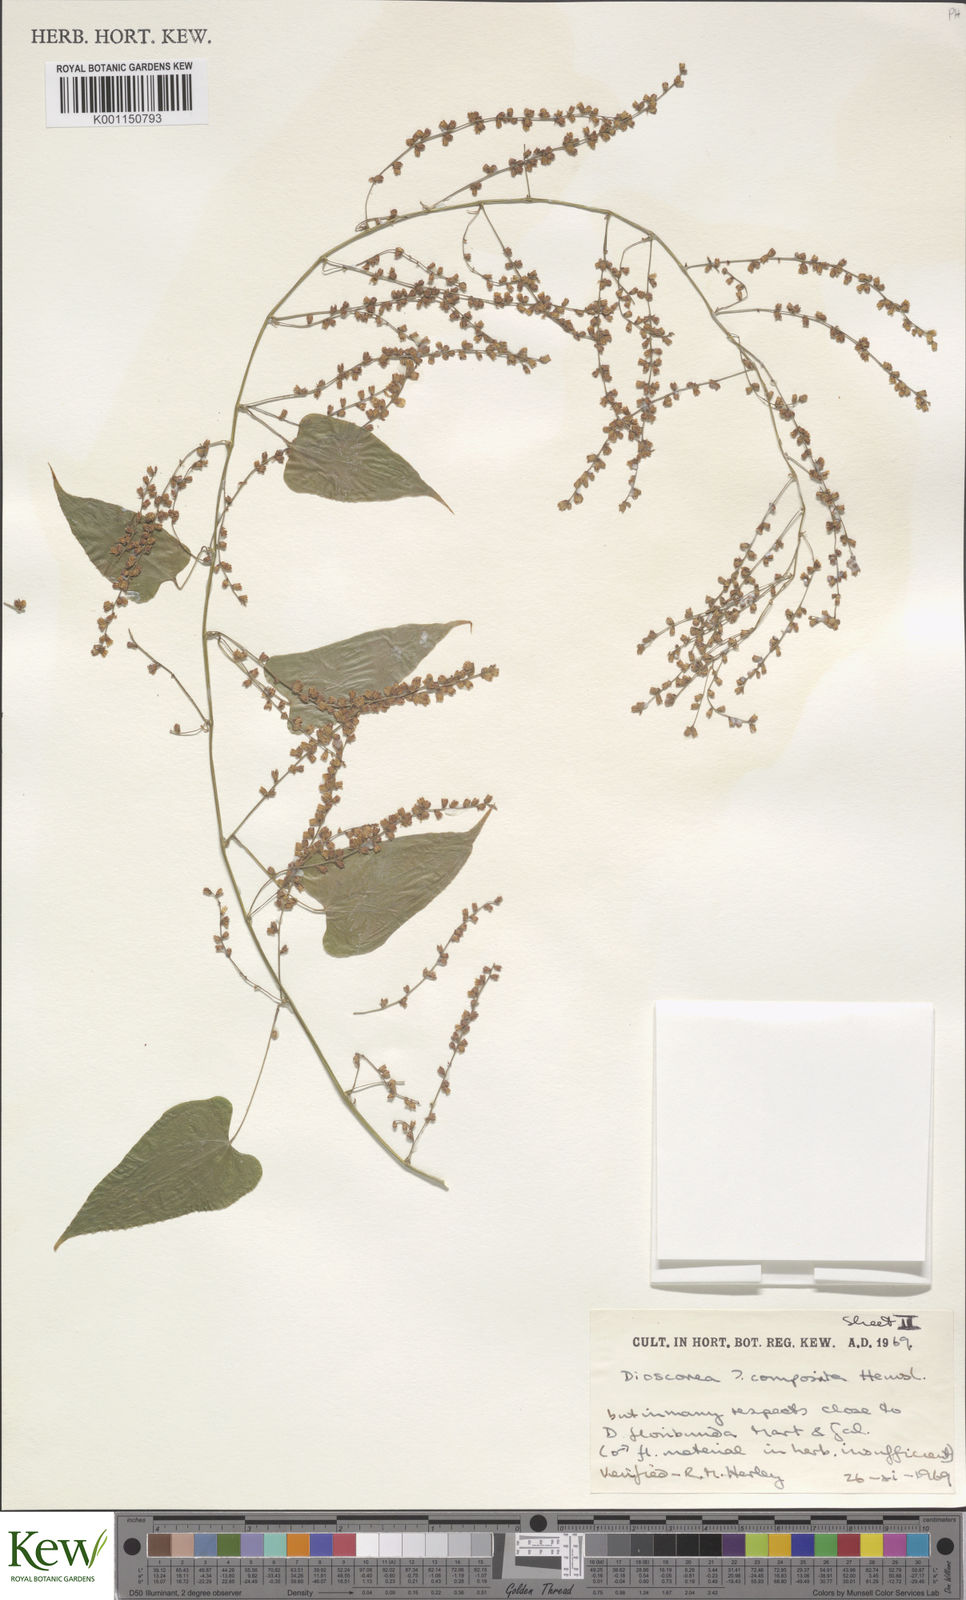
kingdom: Plantae
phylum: Tracheophyta
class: Liliopsida
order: Dioscoreales
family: Dioscoreaceae
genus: Dioscorea
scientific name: Dioscorea convolvulacea
